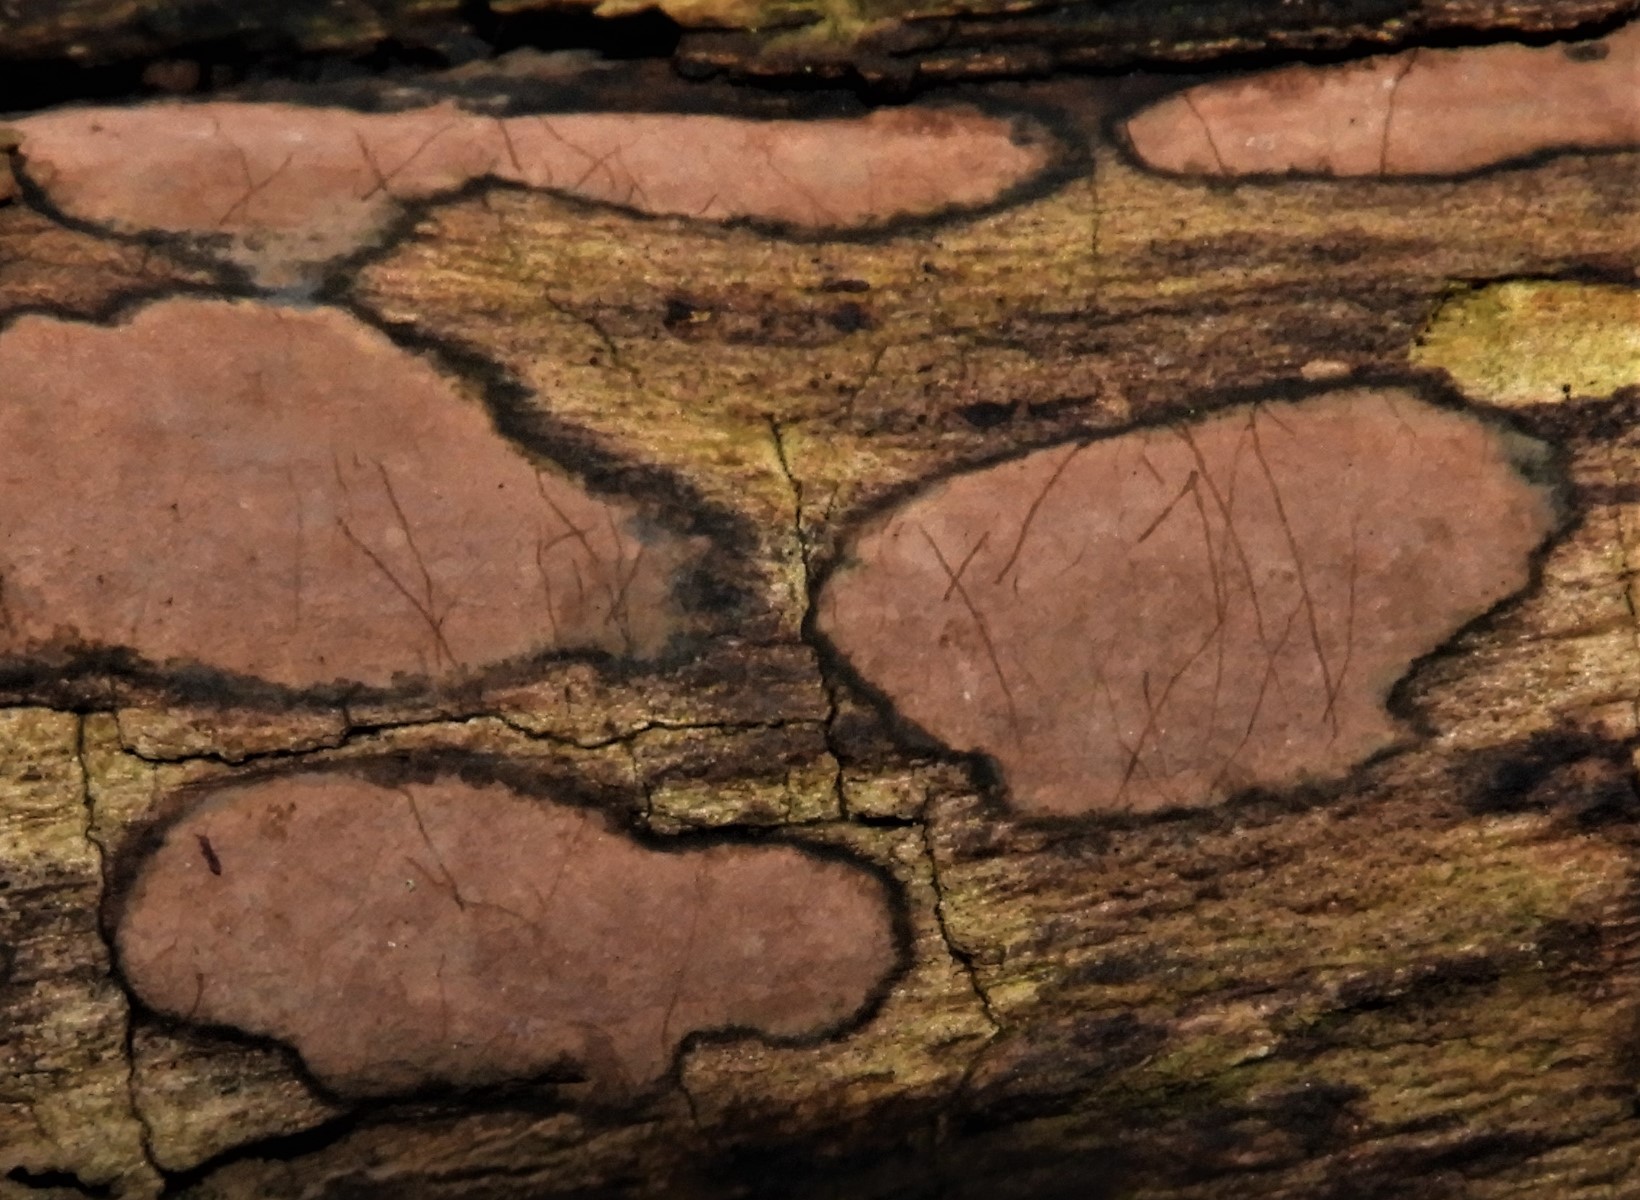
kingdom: Fungi
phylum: Ascomycota
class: Sordariomycetes
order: Xylariales
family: Hypoxylaceae
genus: Hypoxylon
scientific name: Hypoxylon petriniae
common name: nedsænket kulbær
